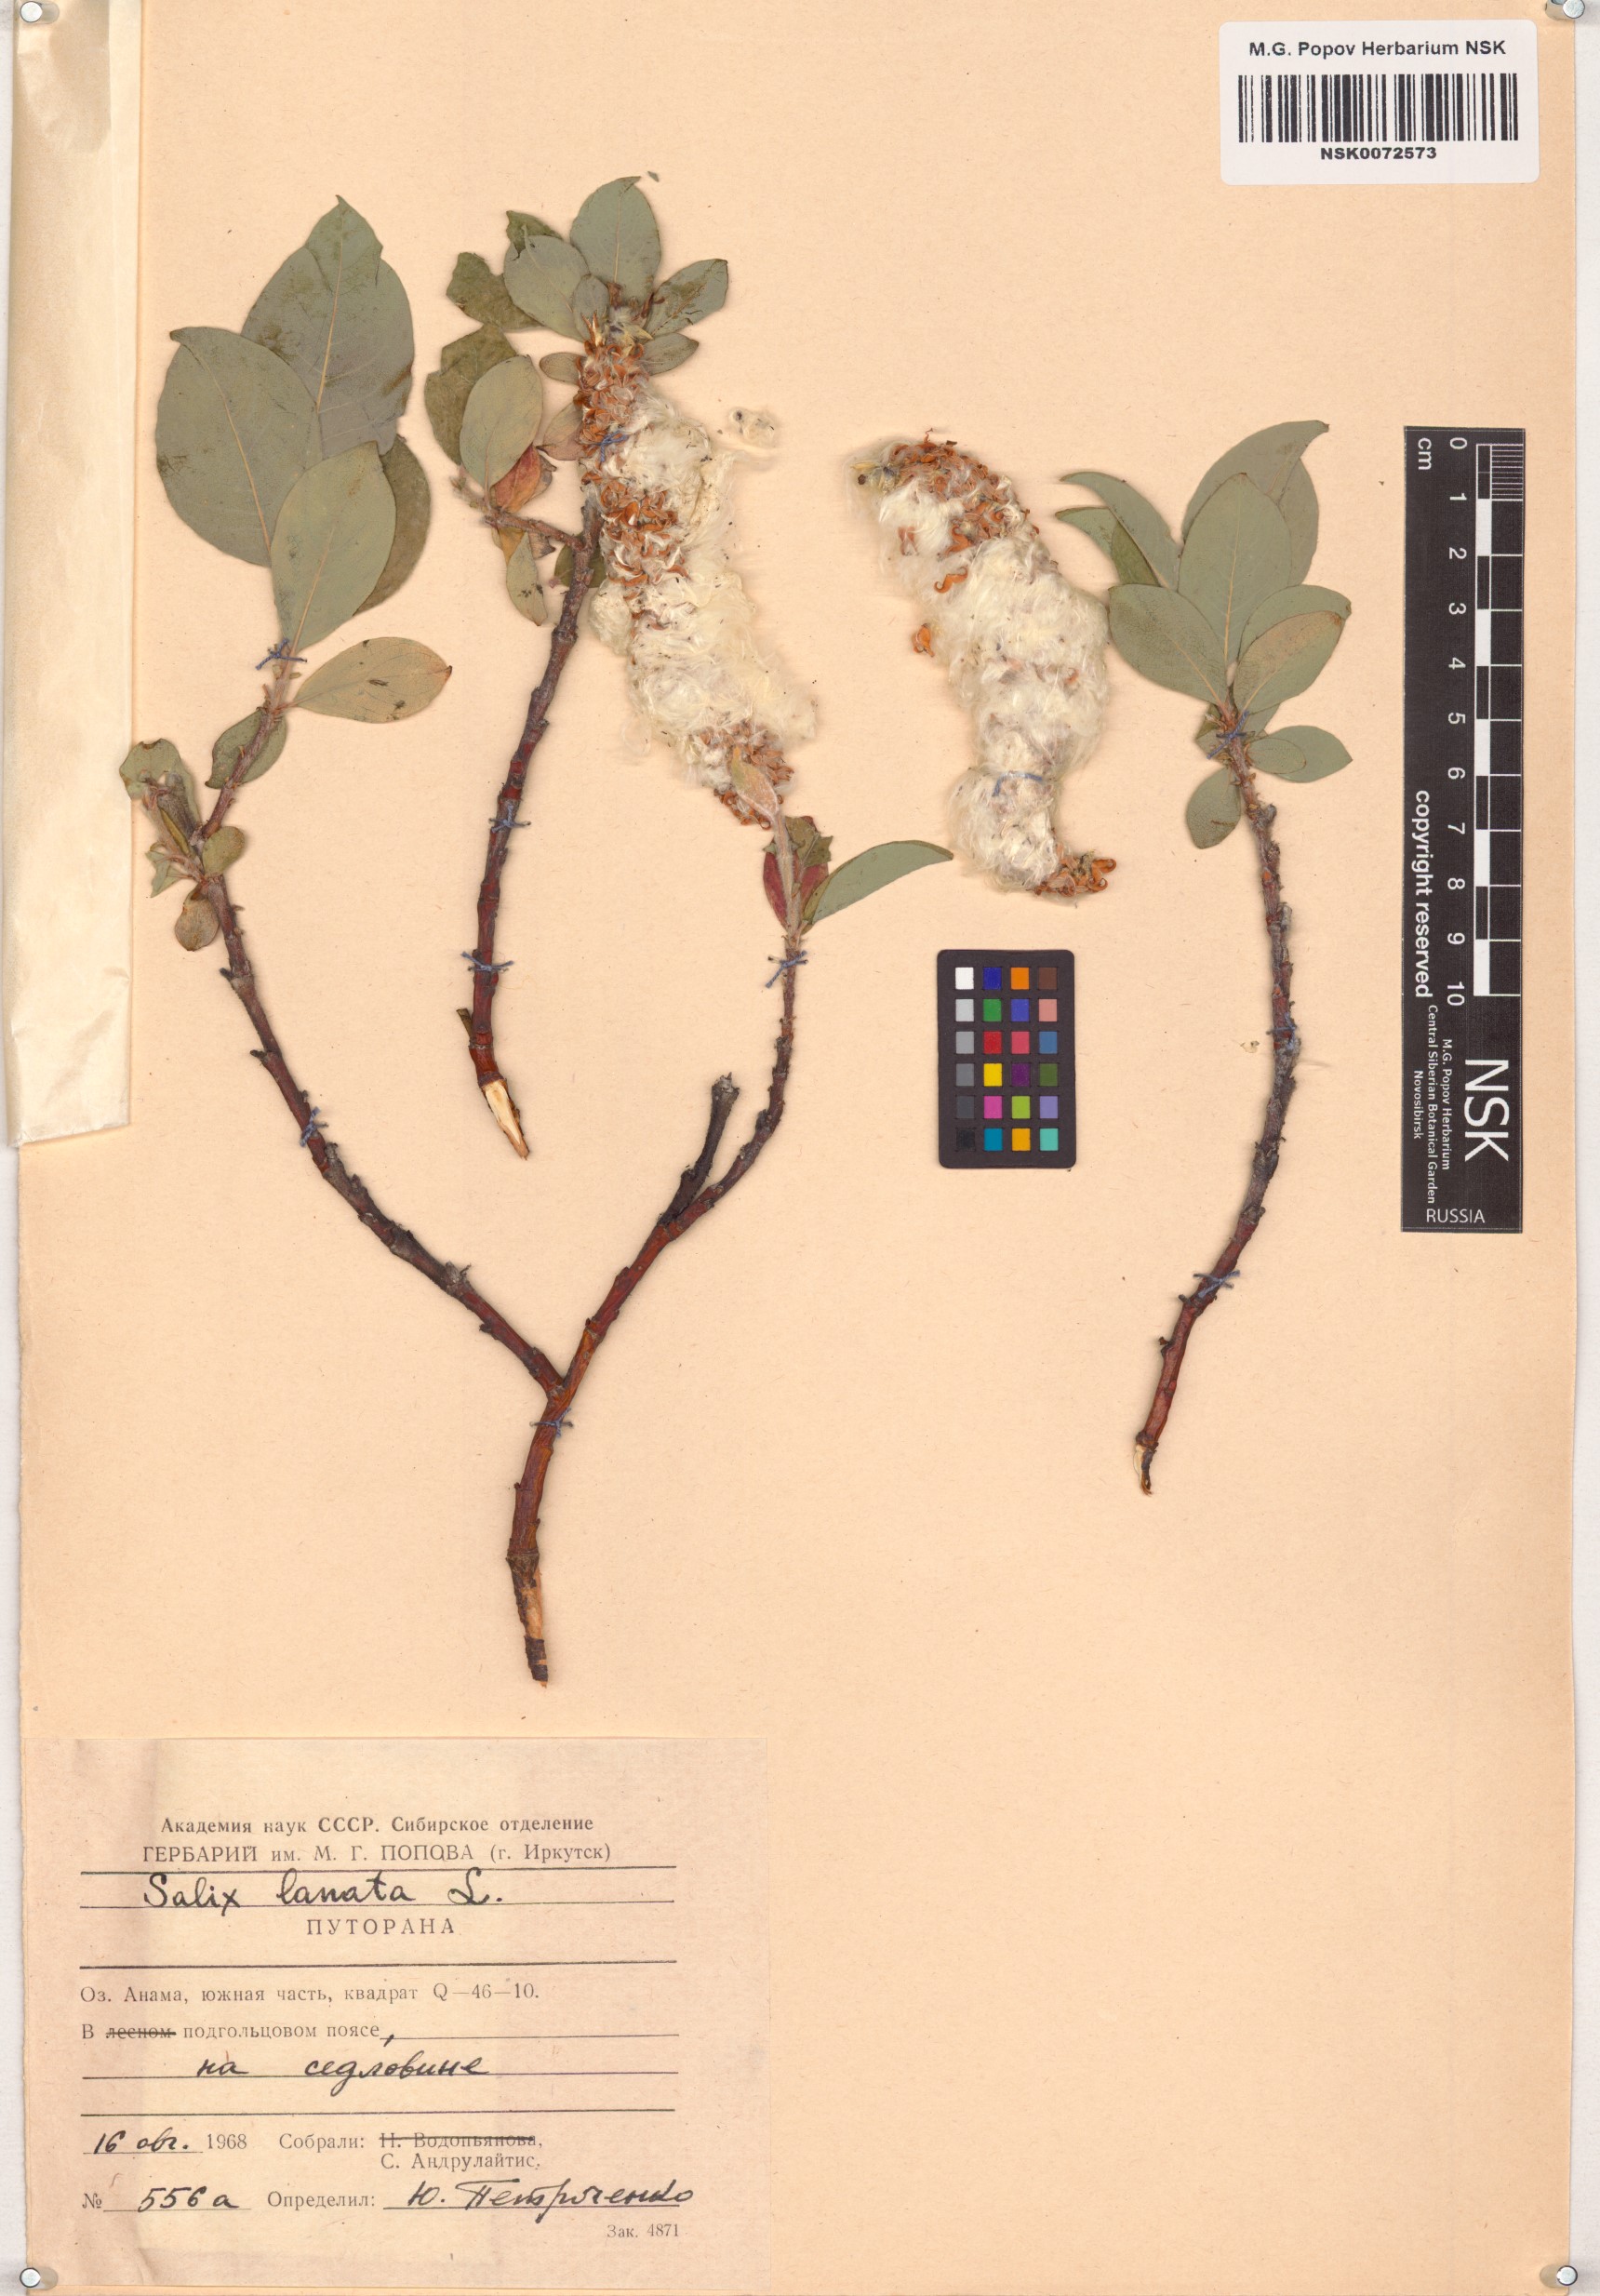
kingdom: Plantae
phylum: Tracheophyta
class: Magnoliopsida
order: Malpighiales
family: Salicaceae
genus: Salix
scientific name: Salix lanata
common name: Woolly willow
